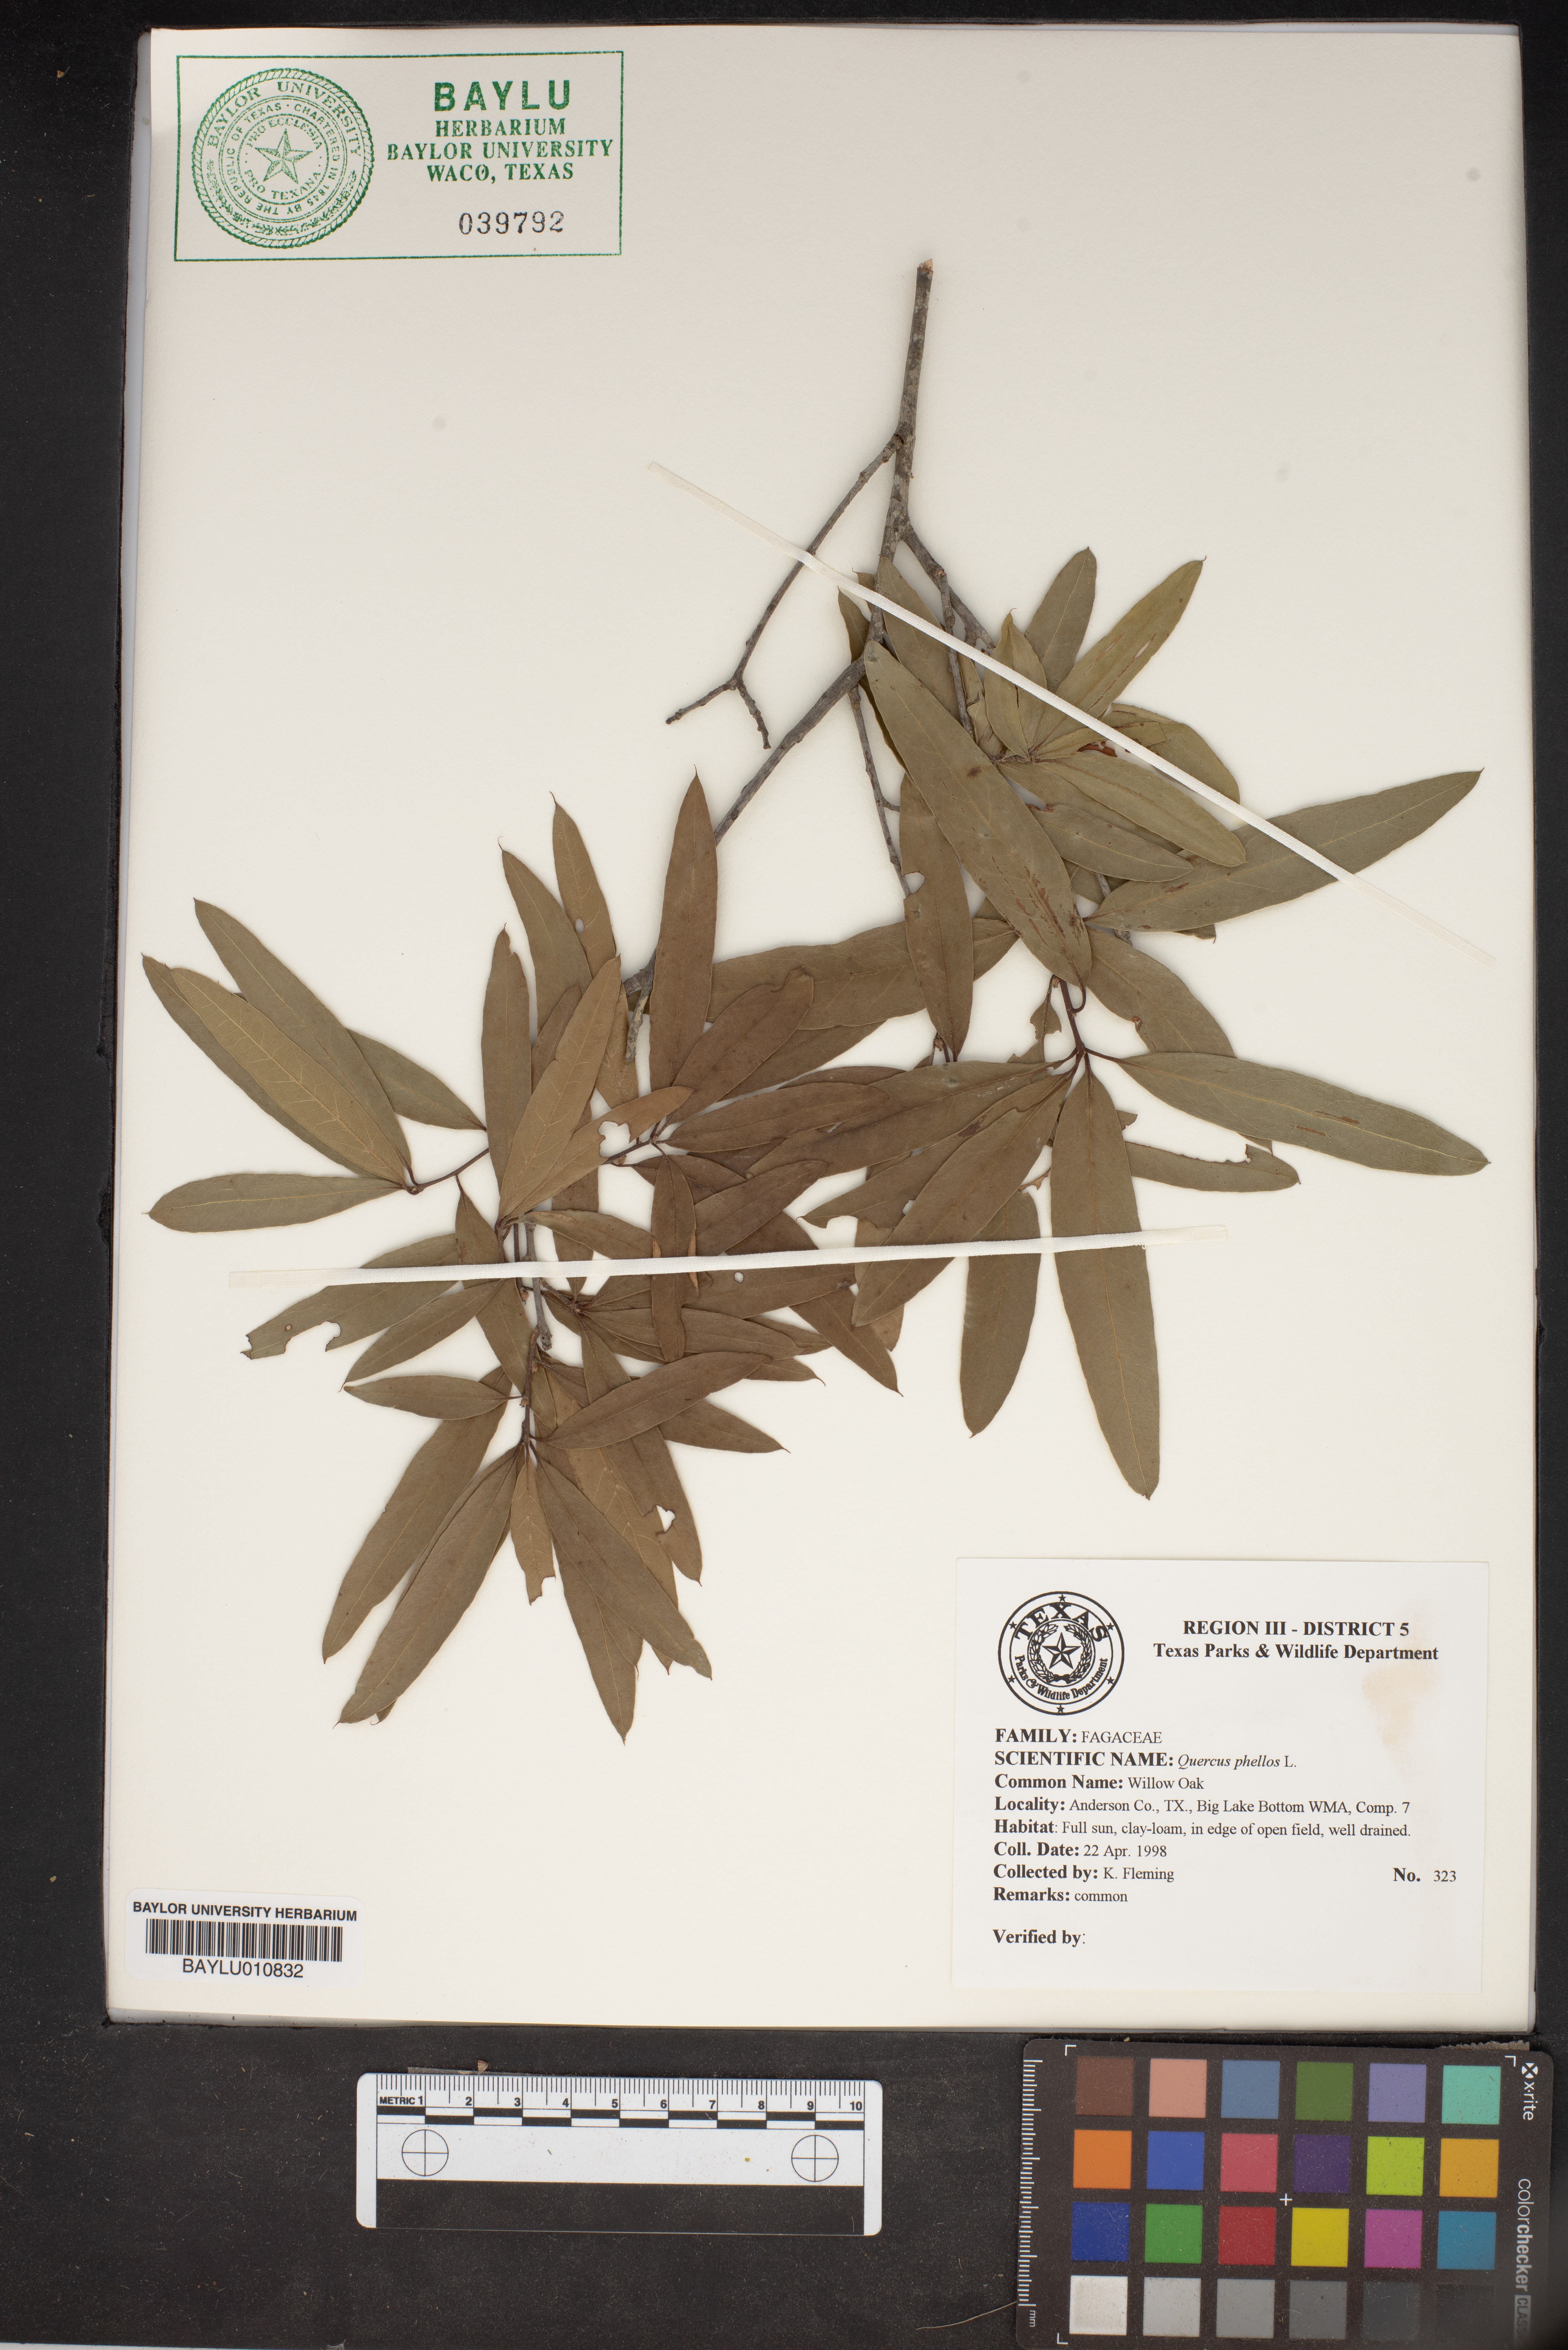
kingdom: Plantae
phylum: Tracheophyta
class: Magnoliopsida
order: Fagales
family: Fagaceae
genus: Quercus
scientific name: Quercus phellos
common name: Willow oak
